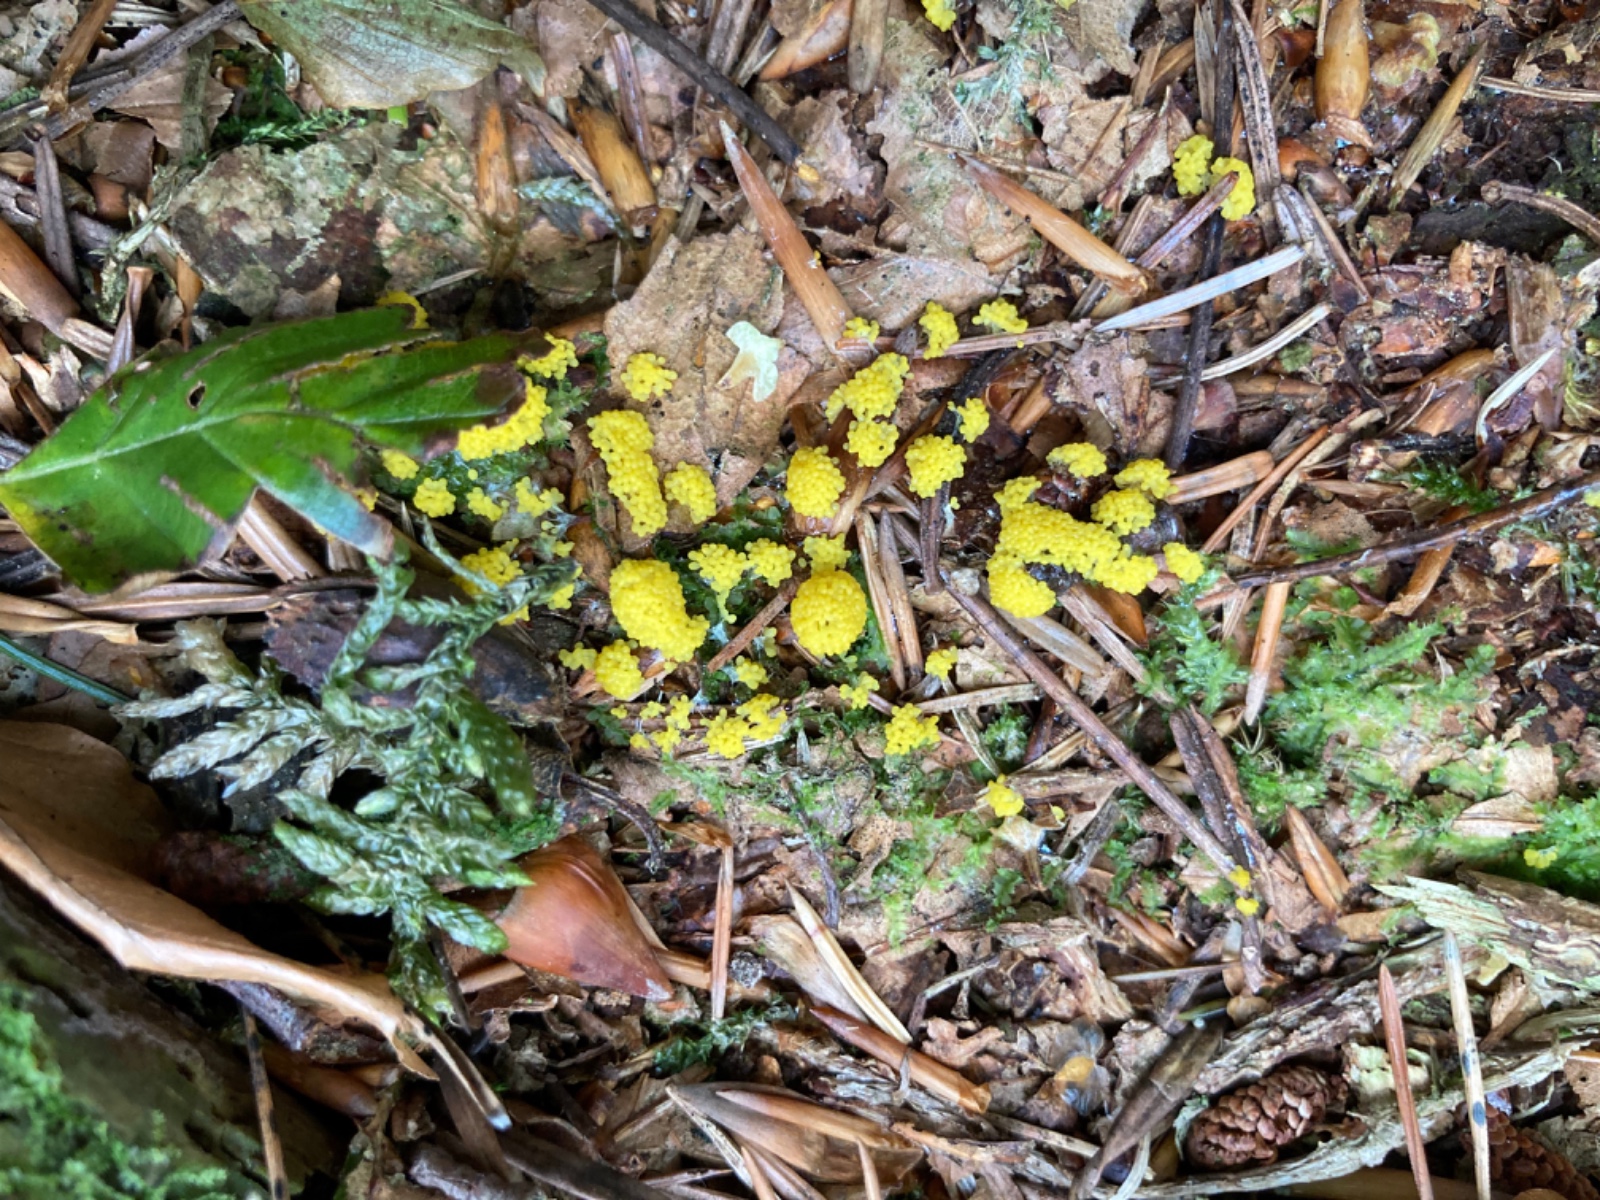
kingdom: Protozoa
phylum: Mycetozoa
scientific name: Mycetozoa
